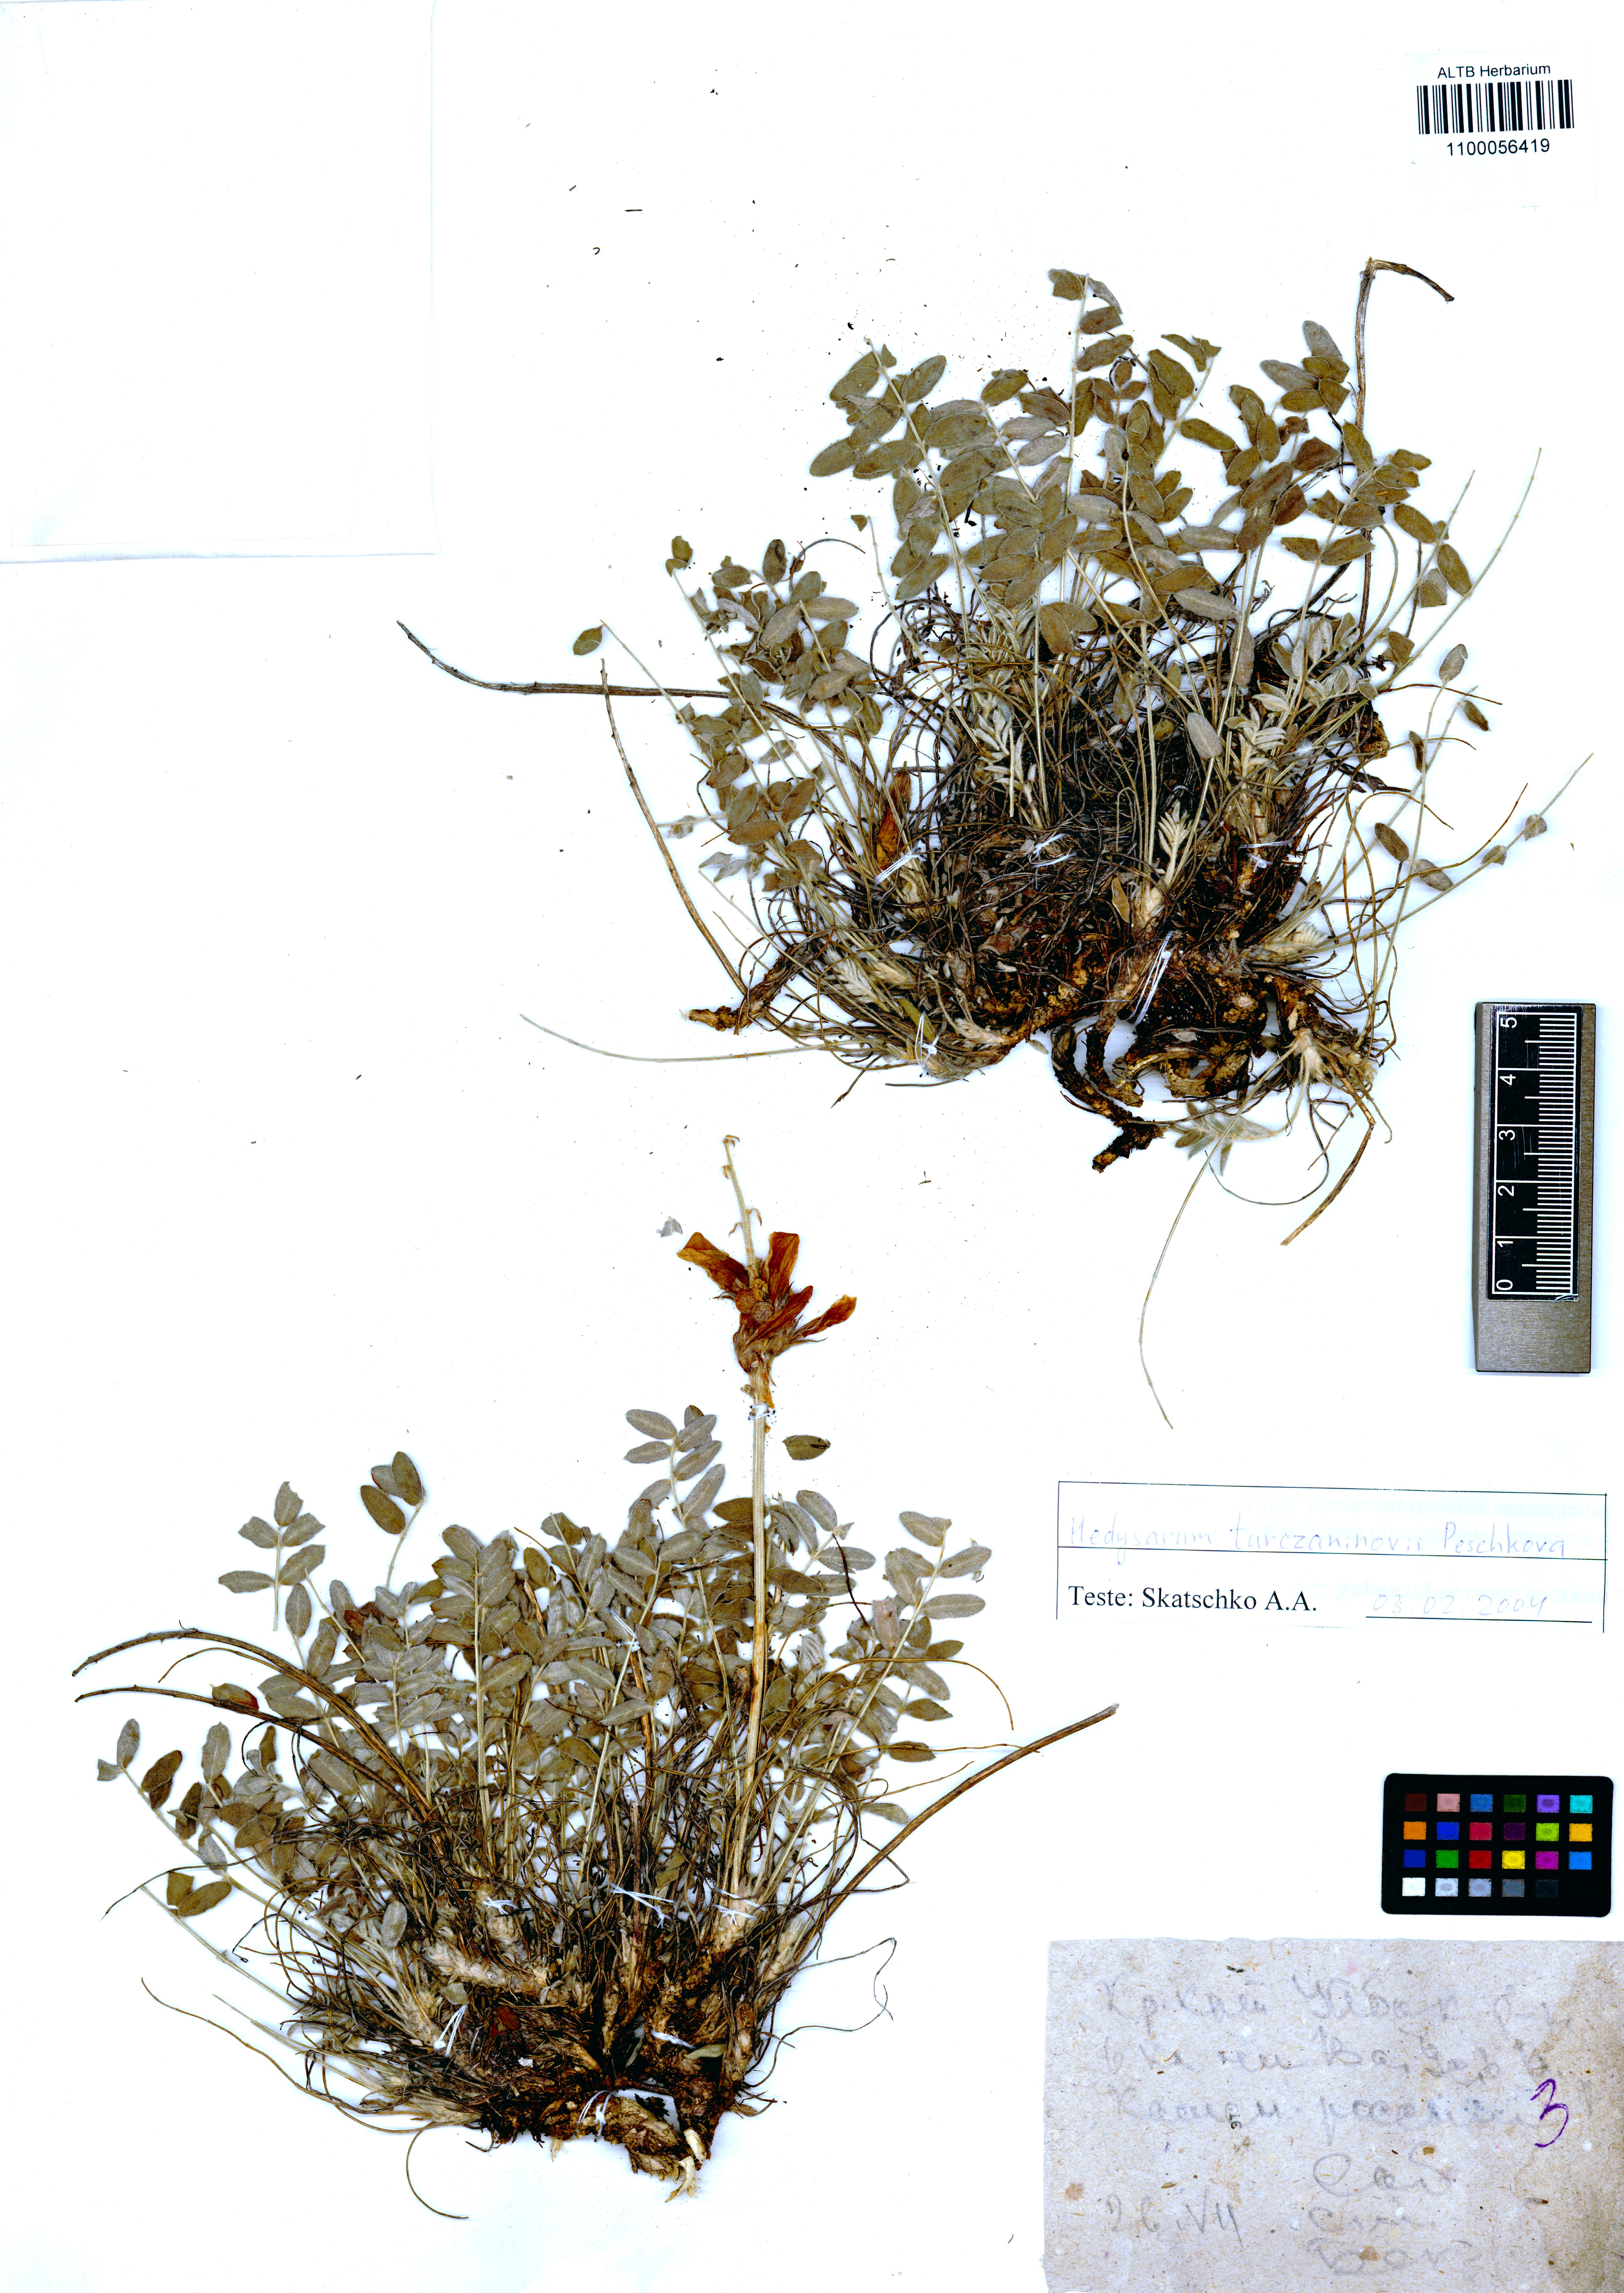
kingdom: Plantae
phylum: Tracheophyta
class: Magnoliopsida
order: Fabales
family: Fabaceae
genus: Hedysarum
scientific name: Hedysarum turczaninovii
